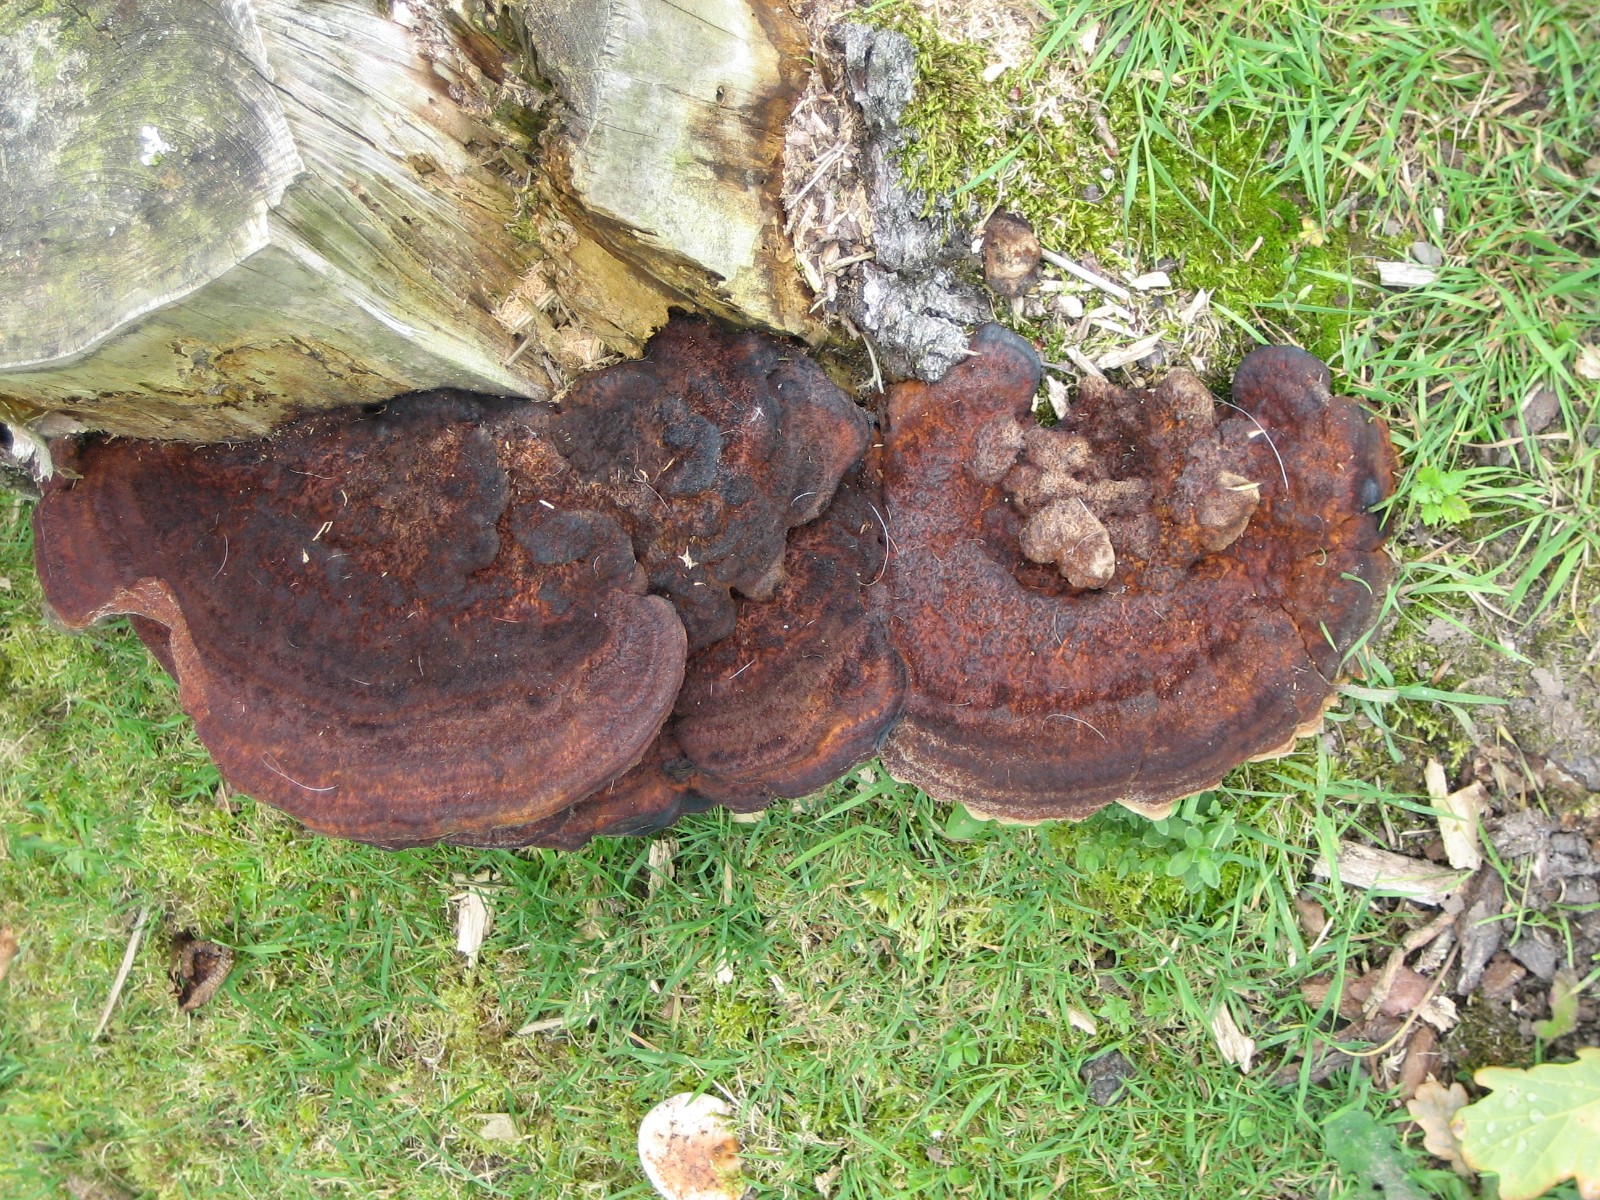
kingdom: Fungi
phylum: Basidiomycota
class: Agaricomycetes
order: Polyporales
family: Laetiporaceae
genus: Phaeolus
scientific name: Phaeolus schweinitzii
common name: brunporesvamp
